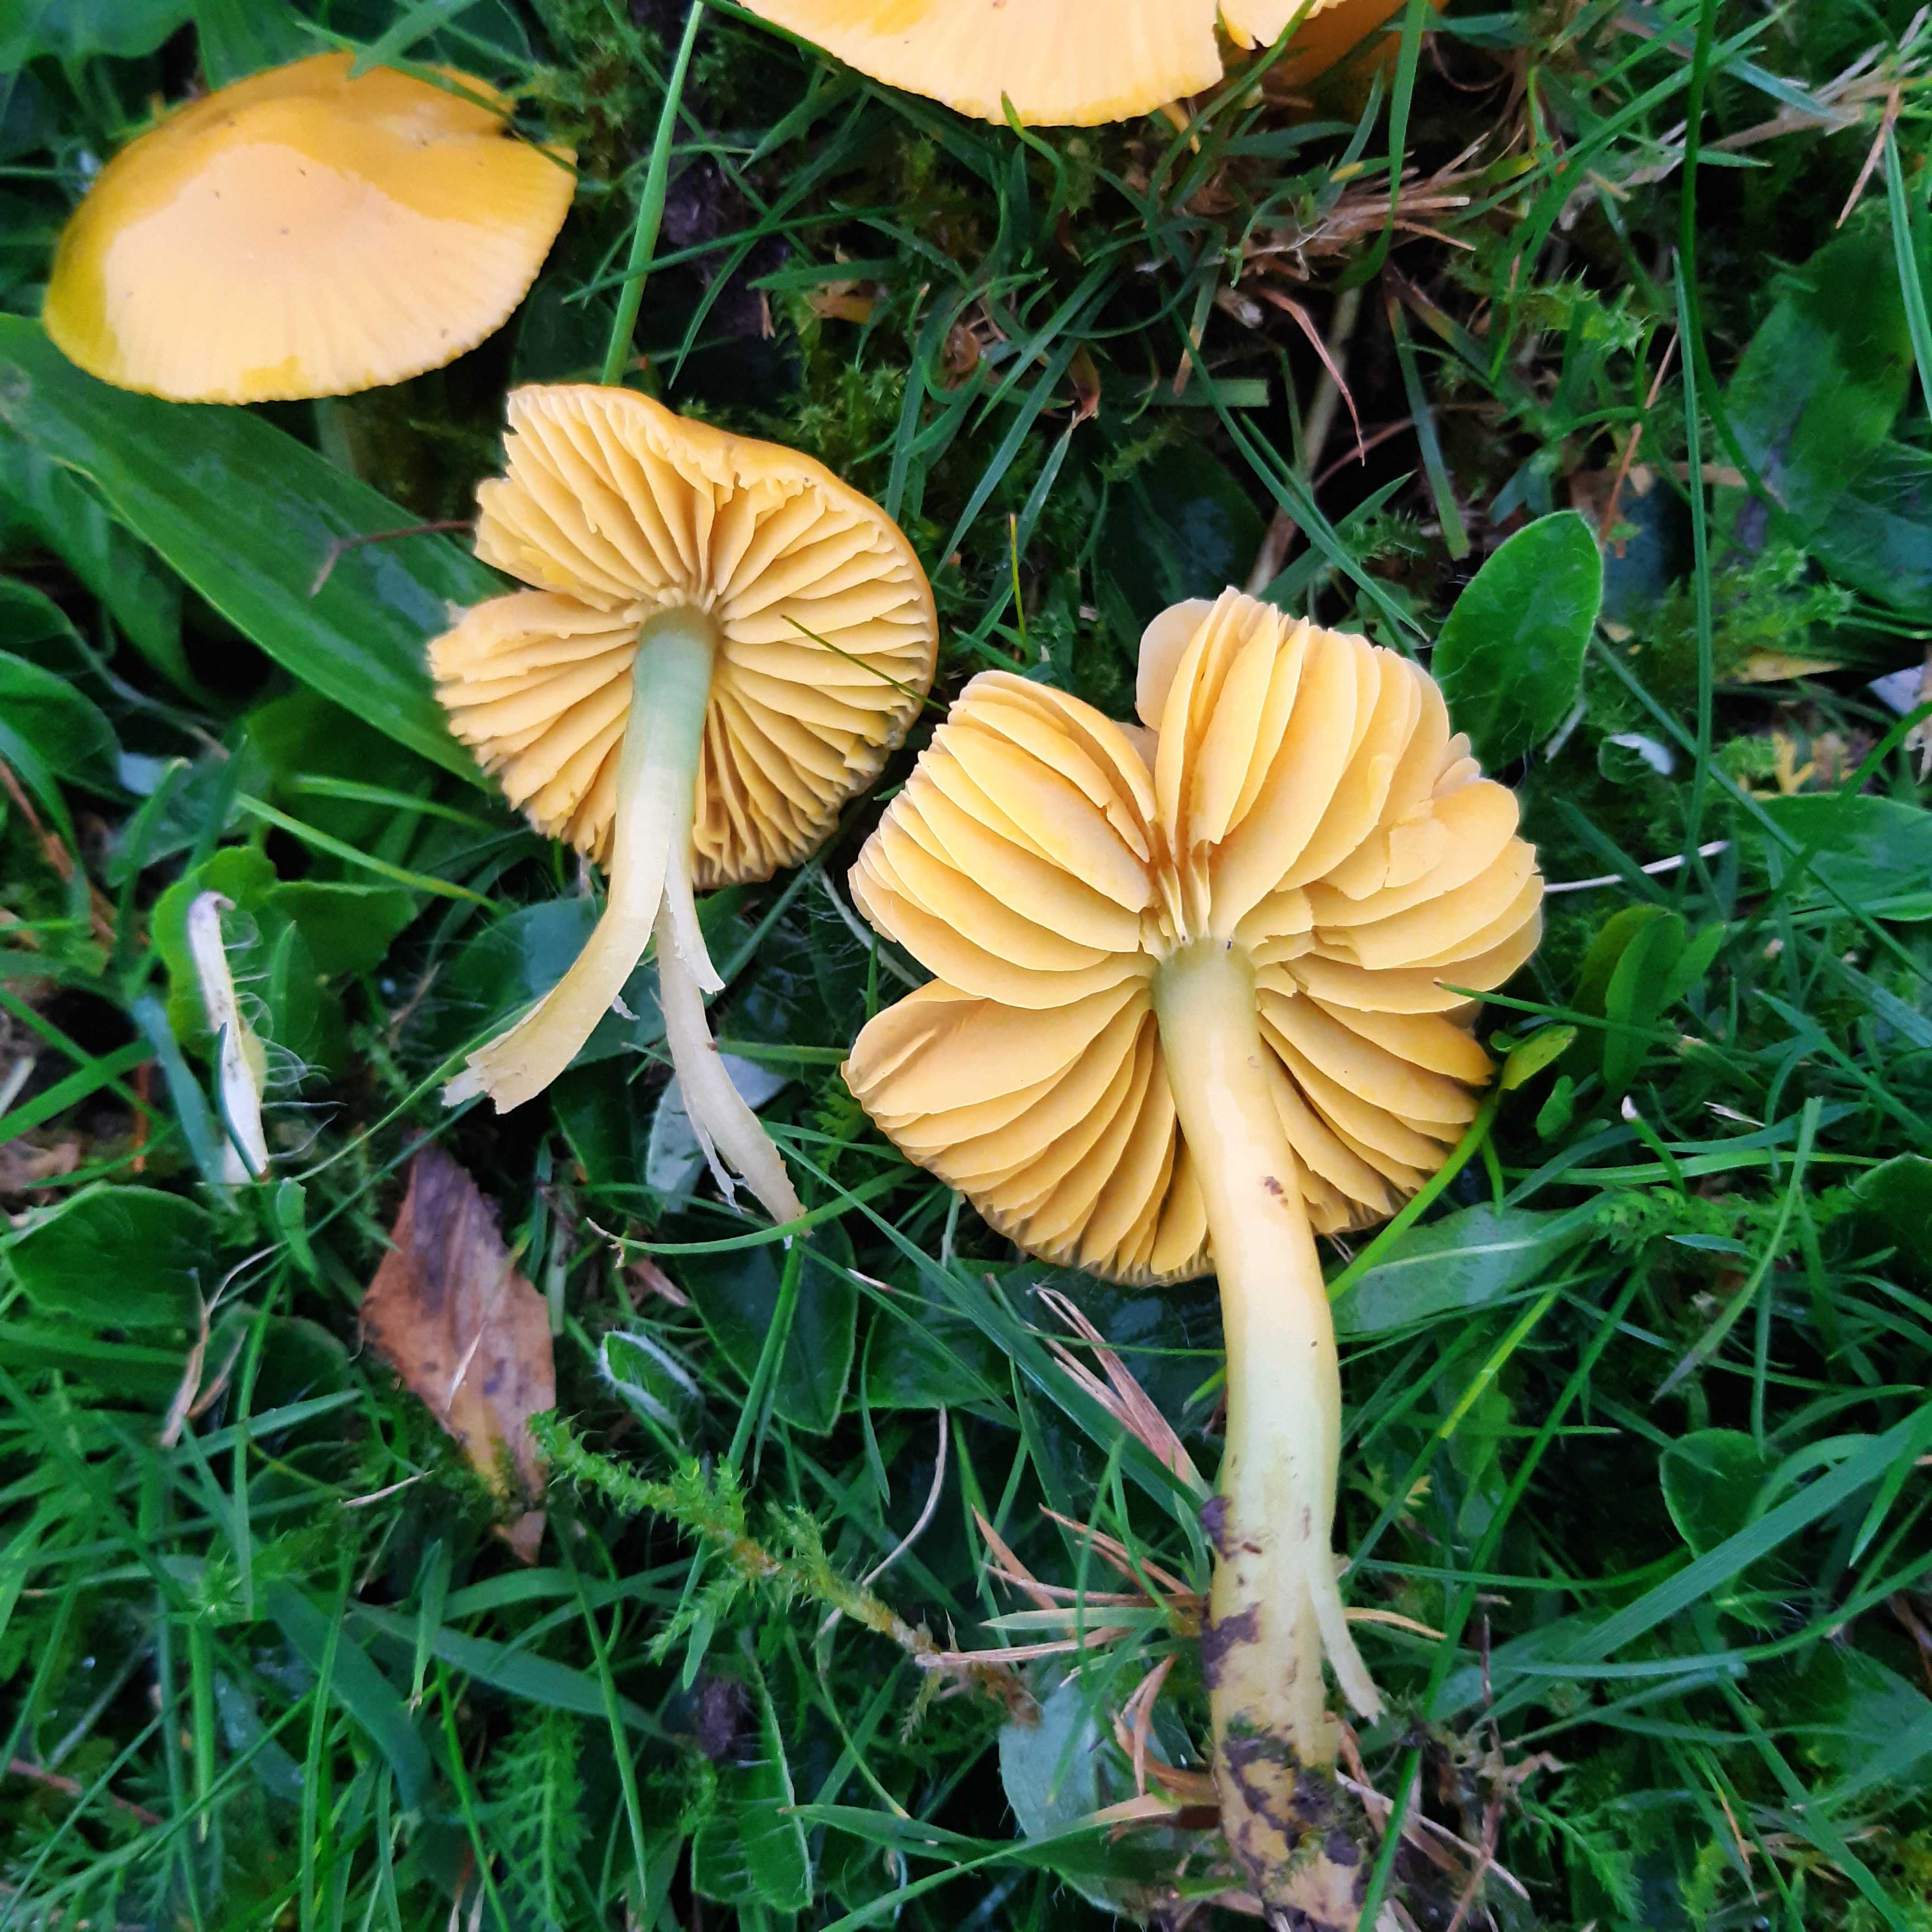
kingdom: Fungi
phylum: Basidiomycota
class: Agaricomycetes
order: Agaricales
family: Hygrophoraceae
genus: Gliophorus
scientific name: Gliophorus psittacinus
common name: papegøje-vokshat
